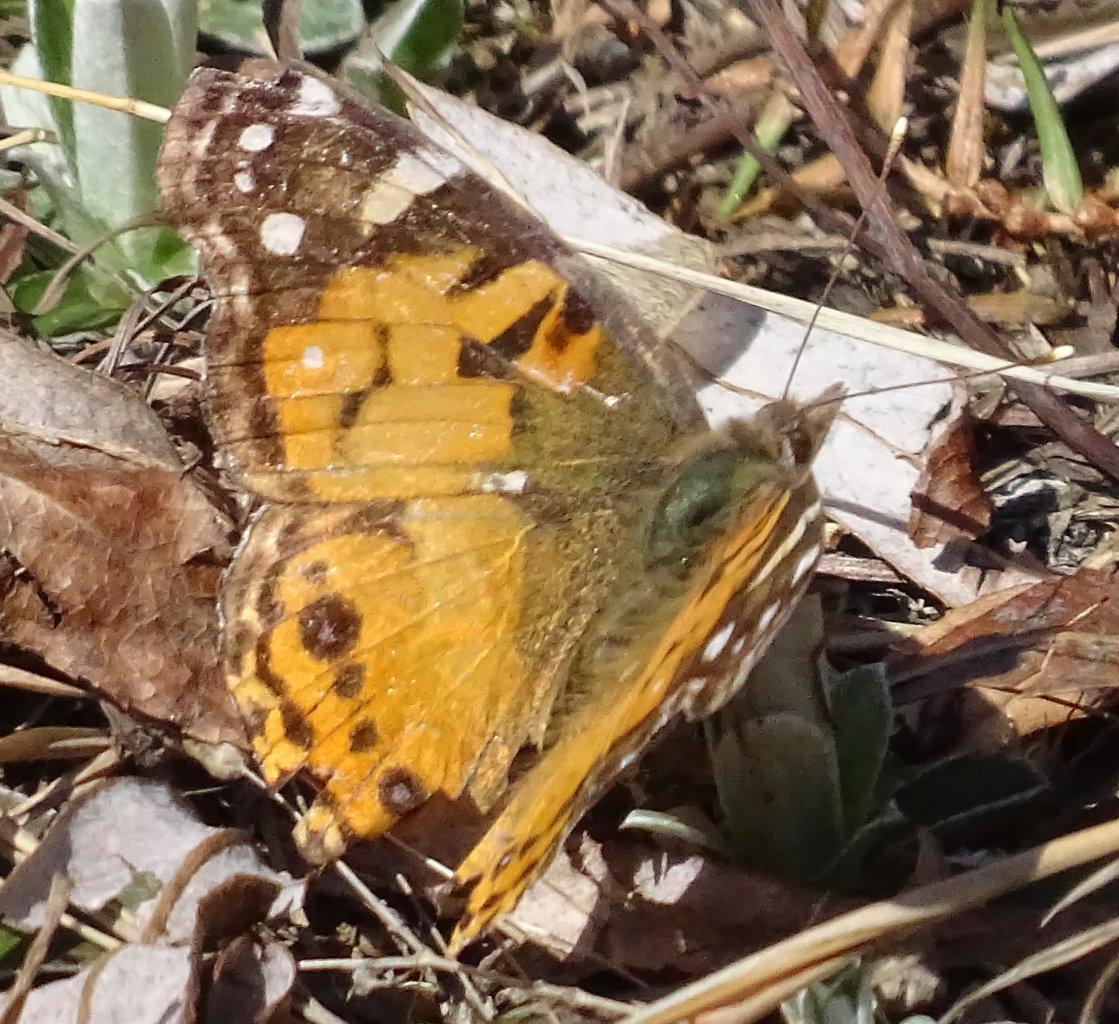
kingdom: Animalia
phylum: Arthropoda
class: Insecta
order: Lepidoptera
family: Nymphalidae
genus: Vanessa
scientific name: Vanessa virginiensis
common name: American Lady
